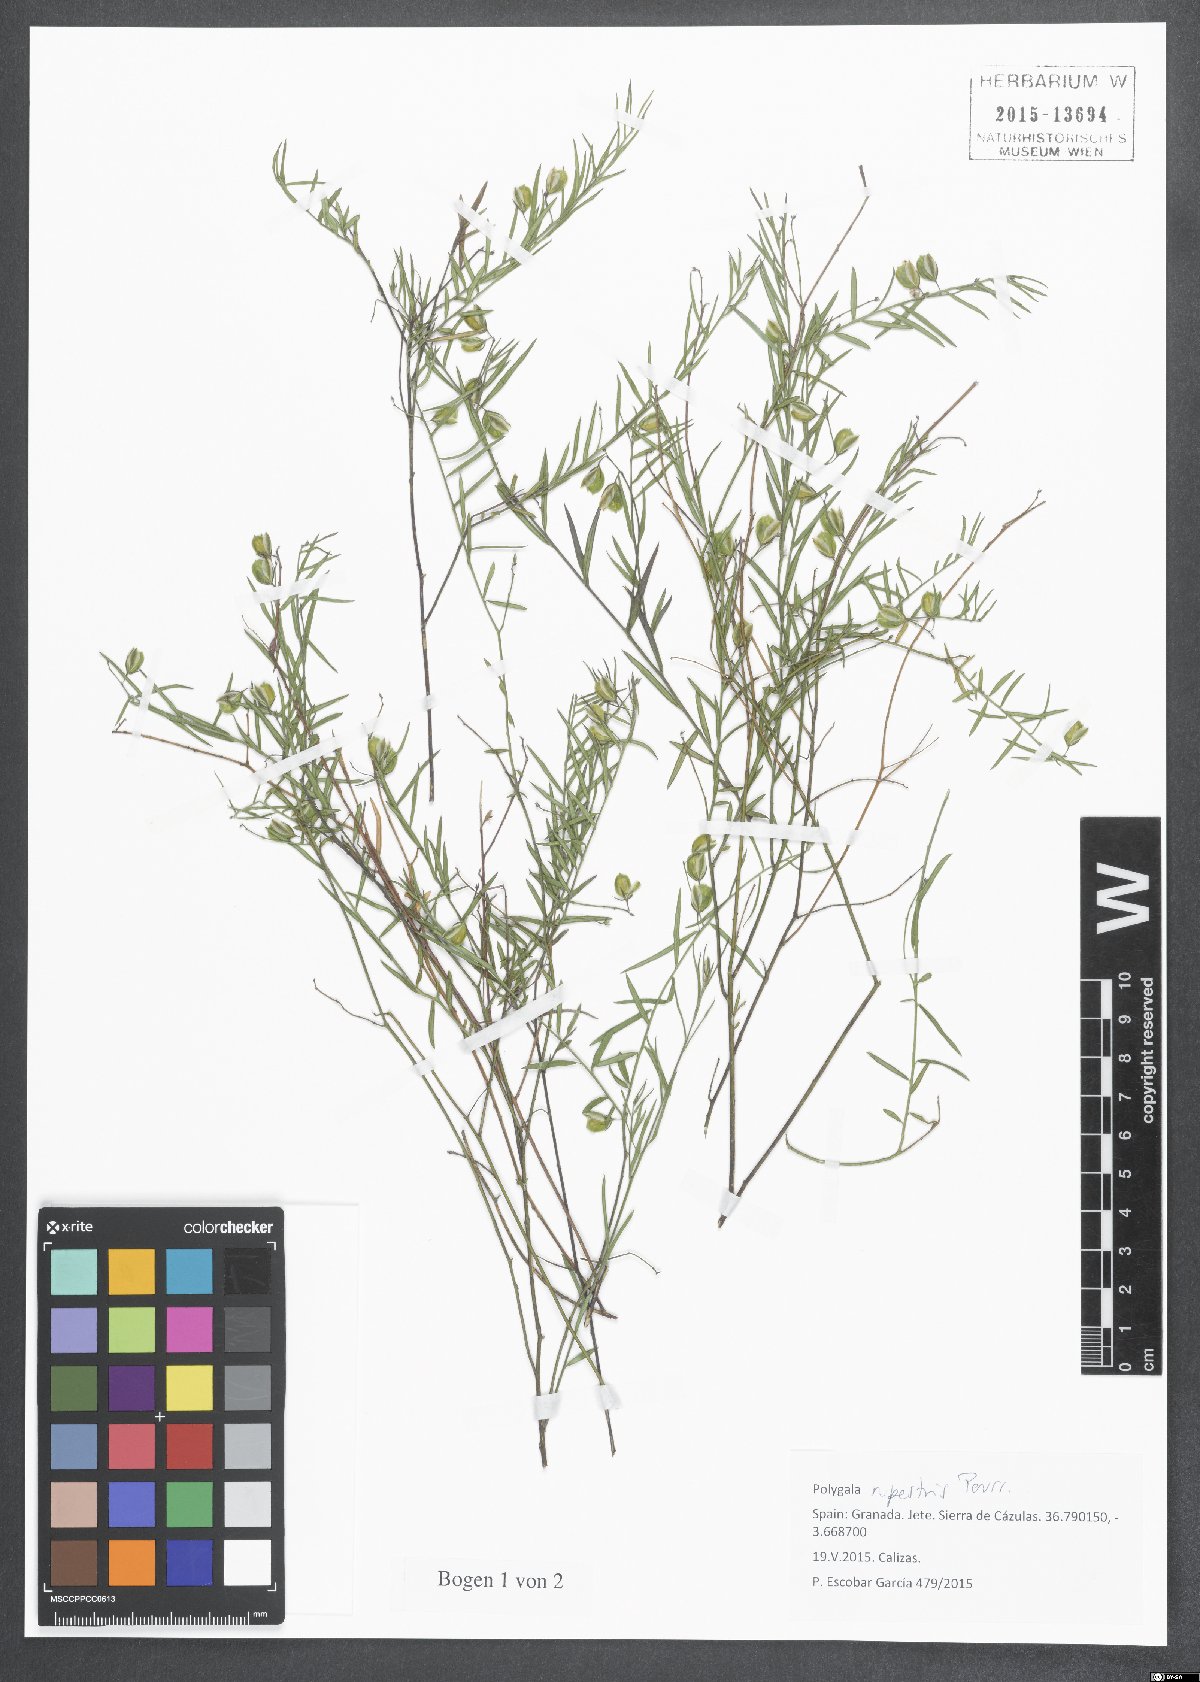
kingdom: Plantae
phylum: Tracheophyta
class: Magnoliopsida
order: Fabales
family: Polygalaceae
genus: Polygala
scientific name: Polygala rupestris
